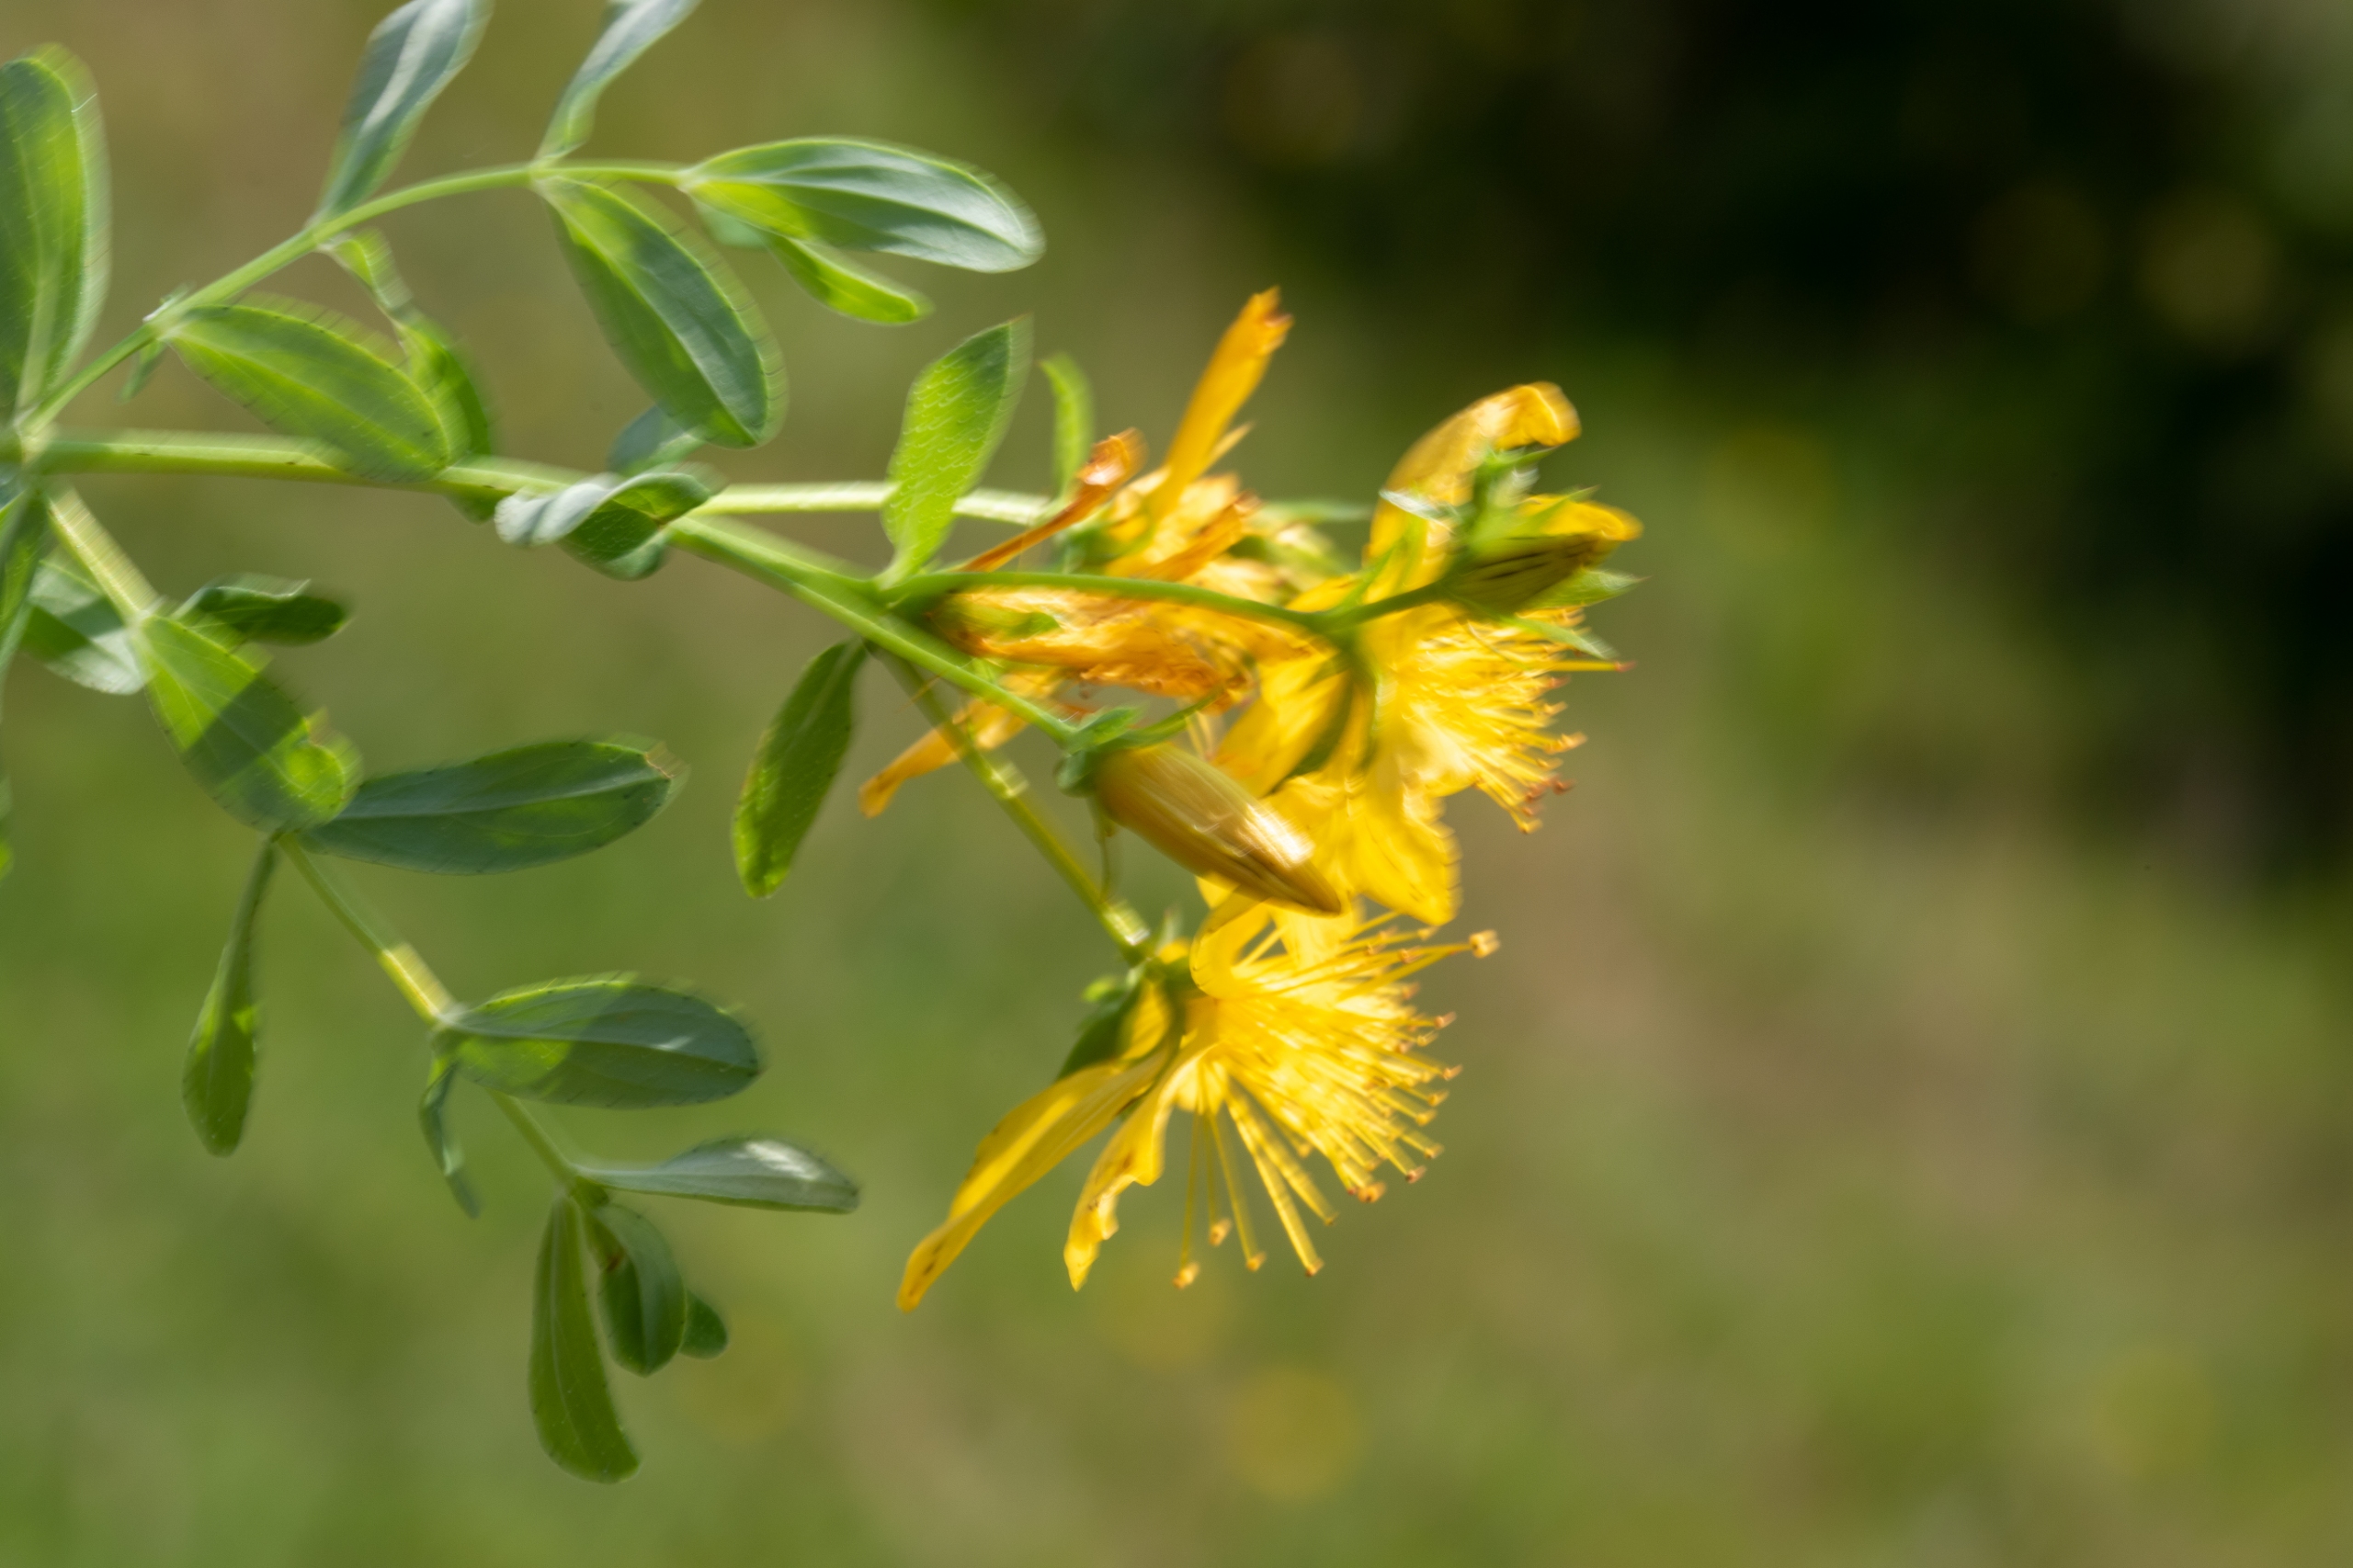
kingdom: Plantae
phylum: Tracheophyta
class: Magnoliopsida
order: Malpighiales
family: Hypericaceae
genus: Hypericum
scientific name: Hypericum perforatum
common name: Prikbladet perikon
